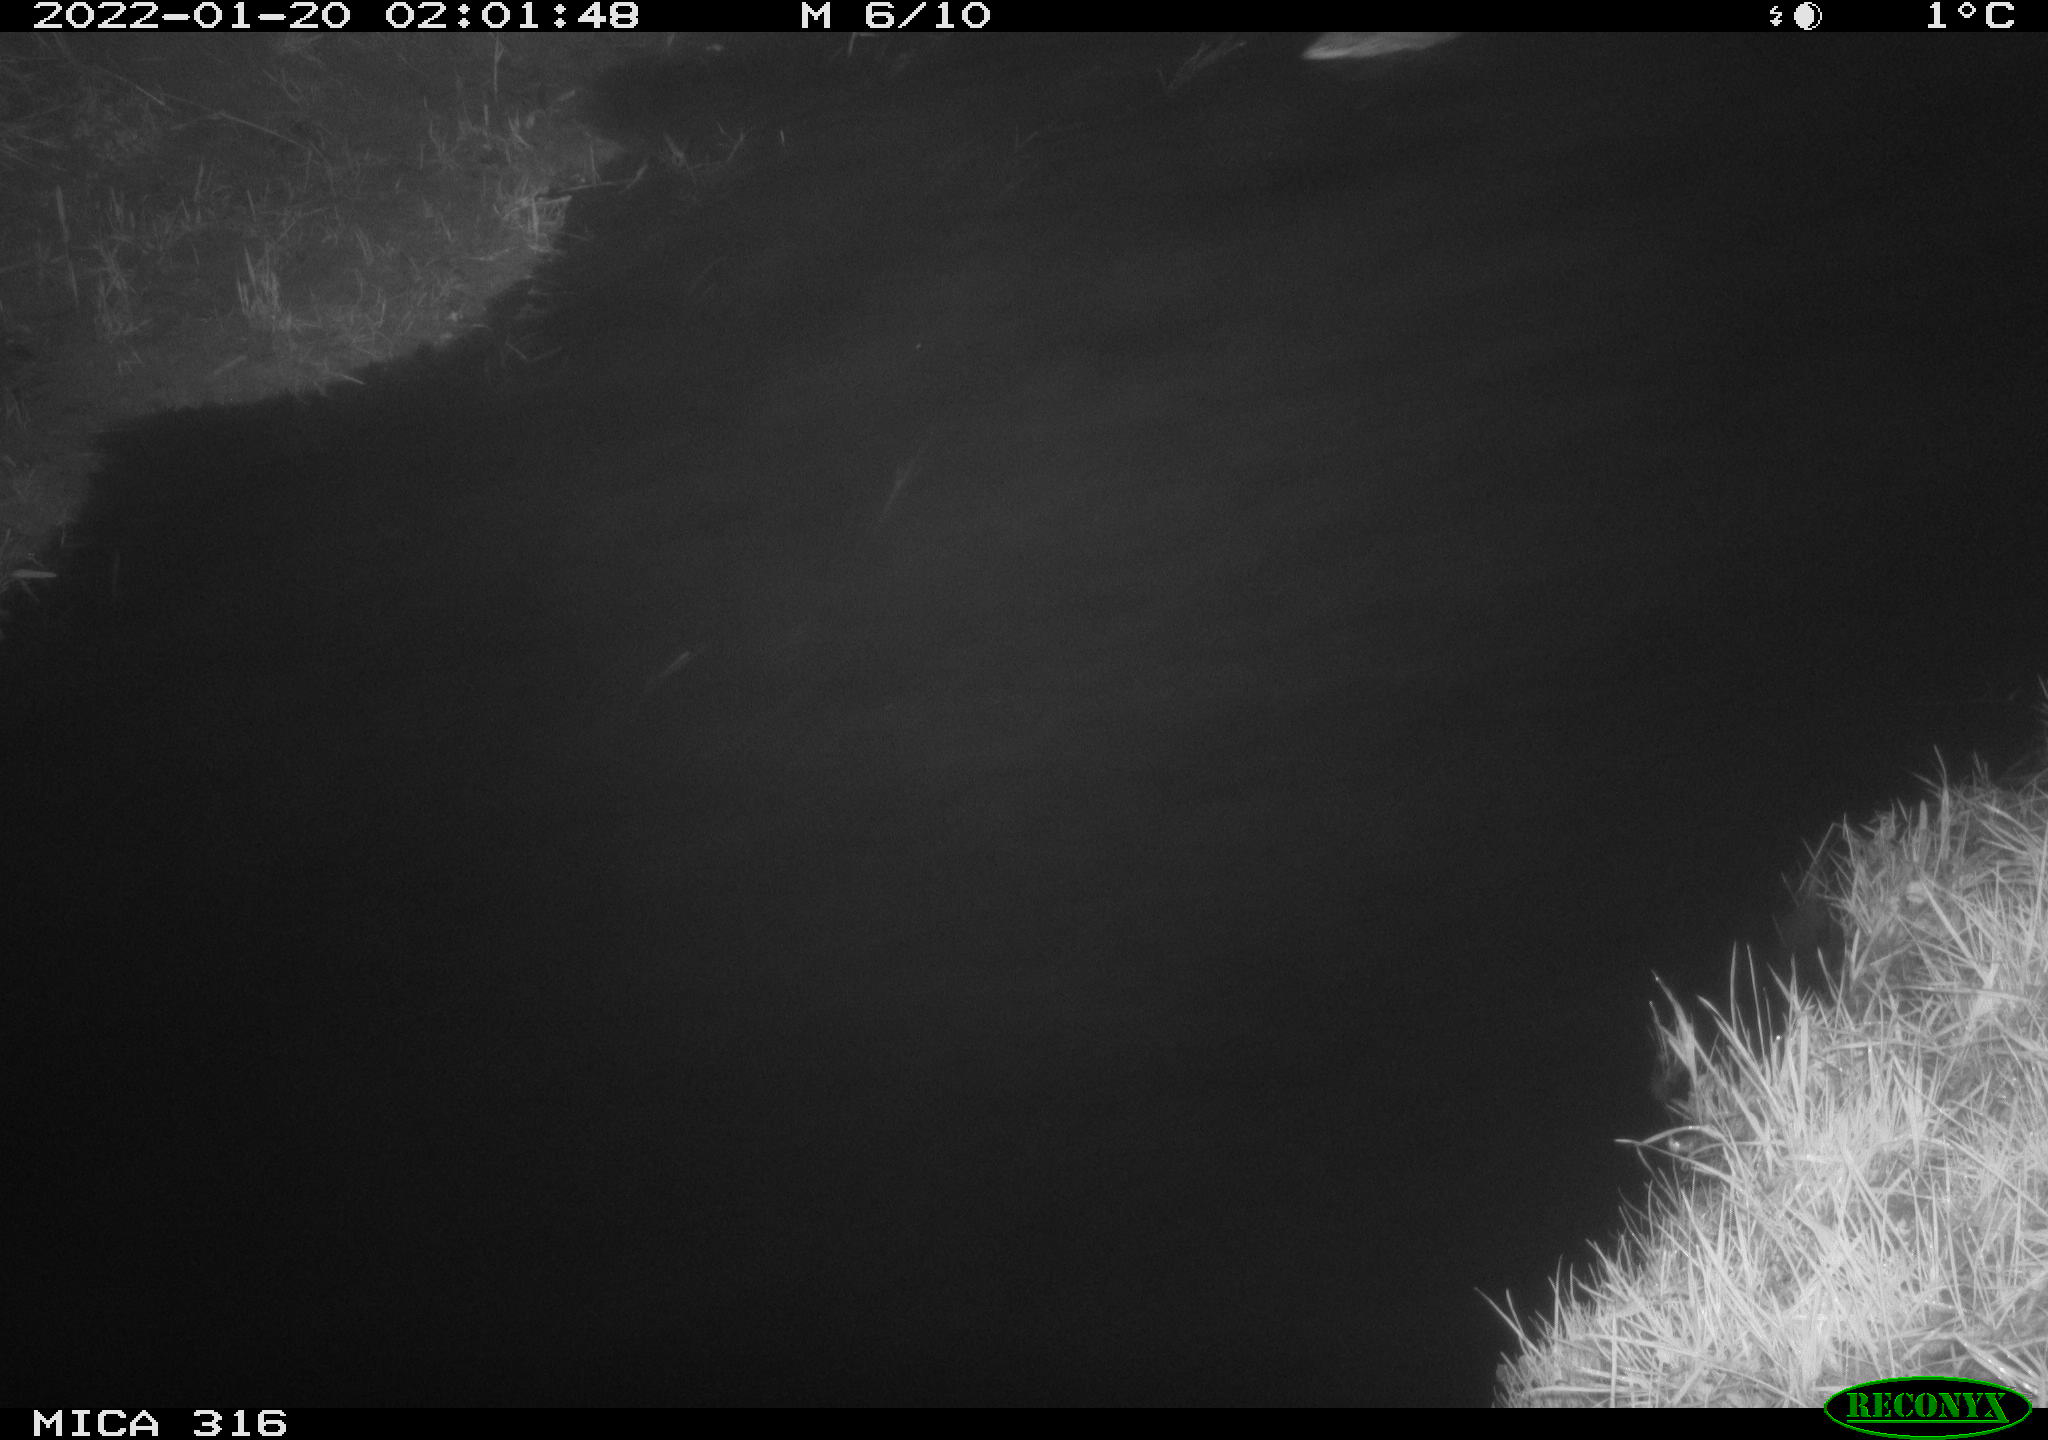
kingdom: Animalia
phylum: Chordata
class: Aves
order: Anseriformes
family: Anatidae
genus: Anas
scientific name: Anas platyrhynchos
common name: Mallard
